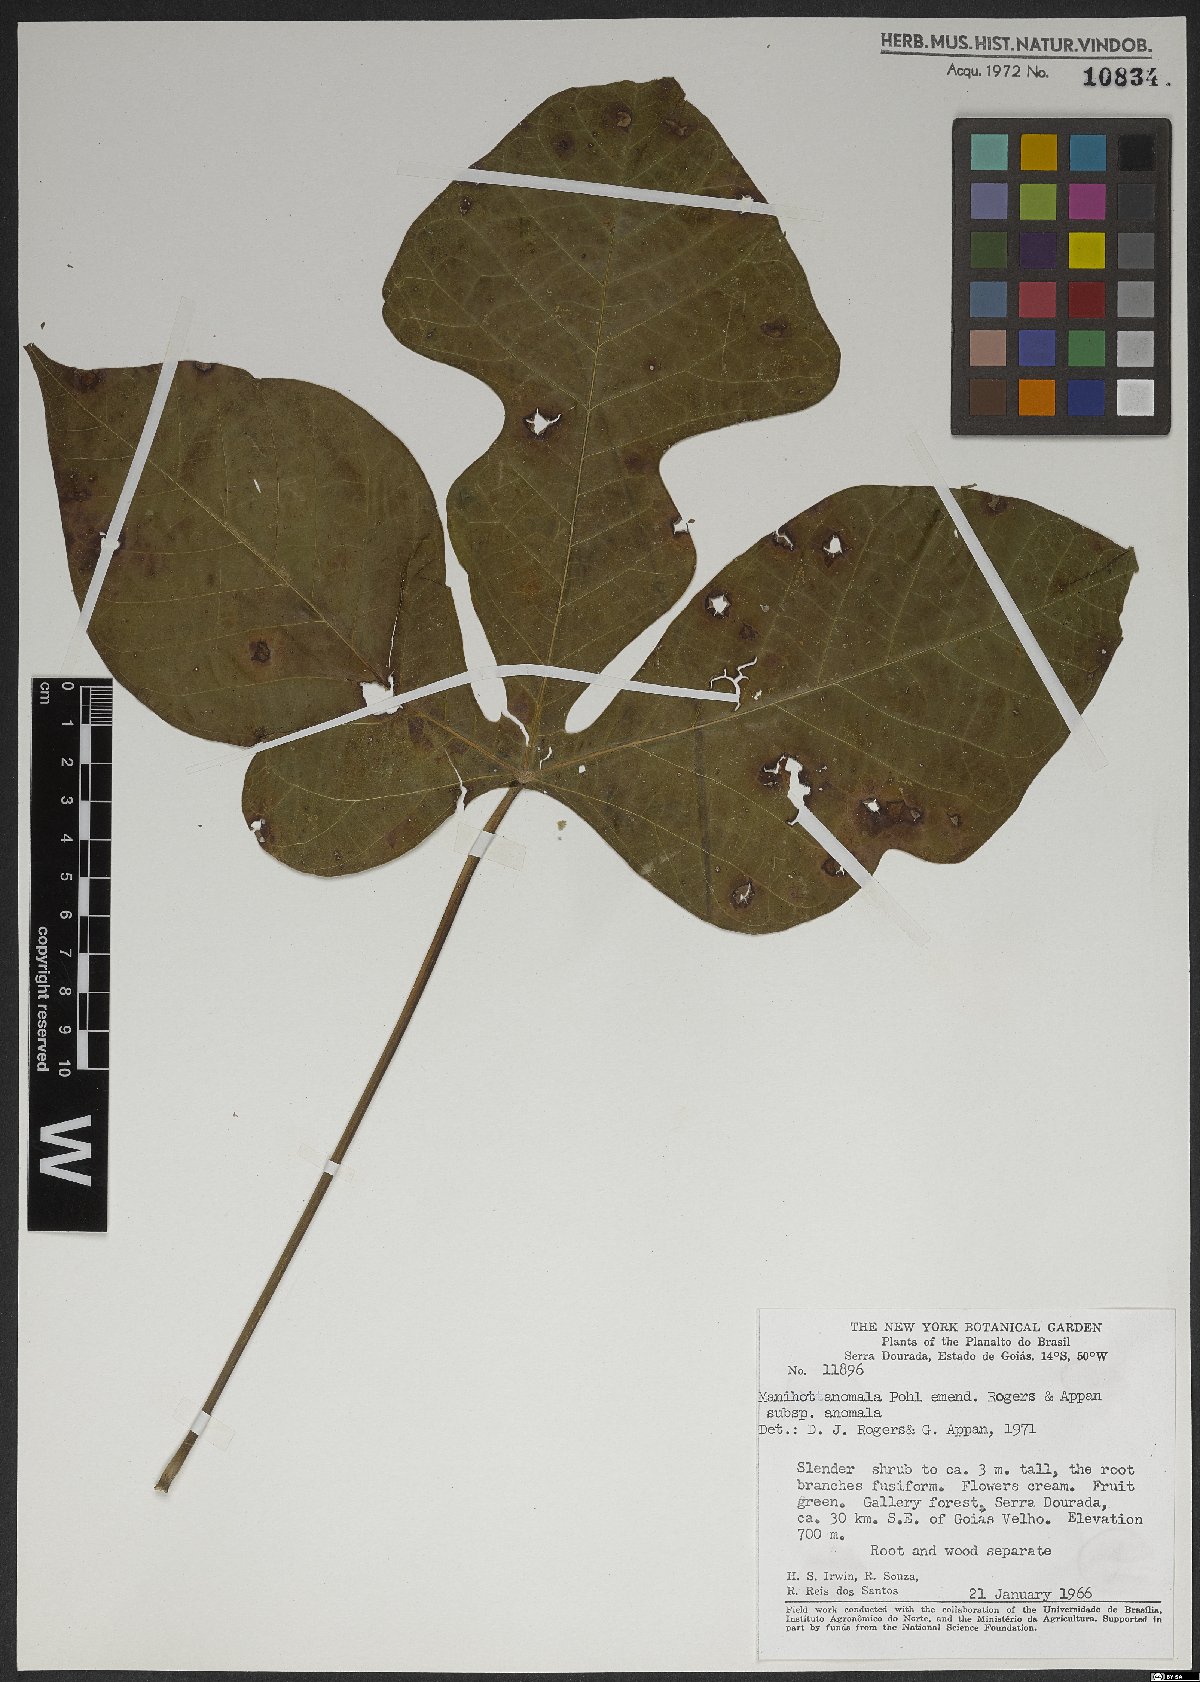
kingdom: Plantae
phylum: Tracheophyta
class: Magnoliopsida
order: Malpighiales
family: Euphorbiaceae
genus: Manihot
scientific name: Manihot anomala
